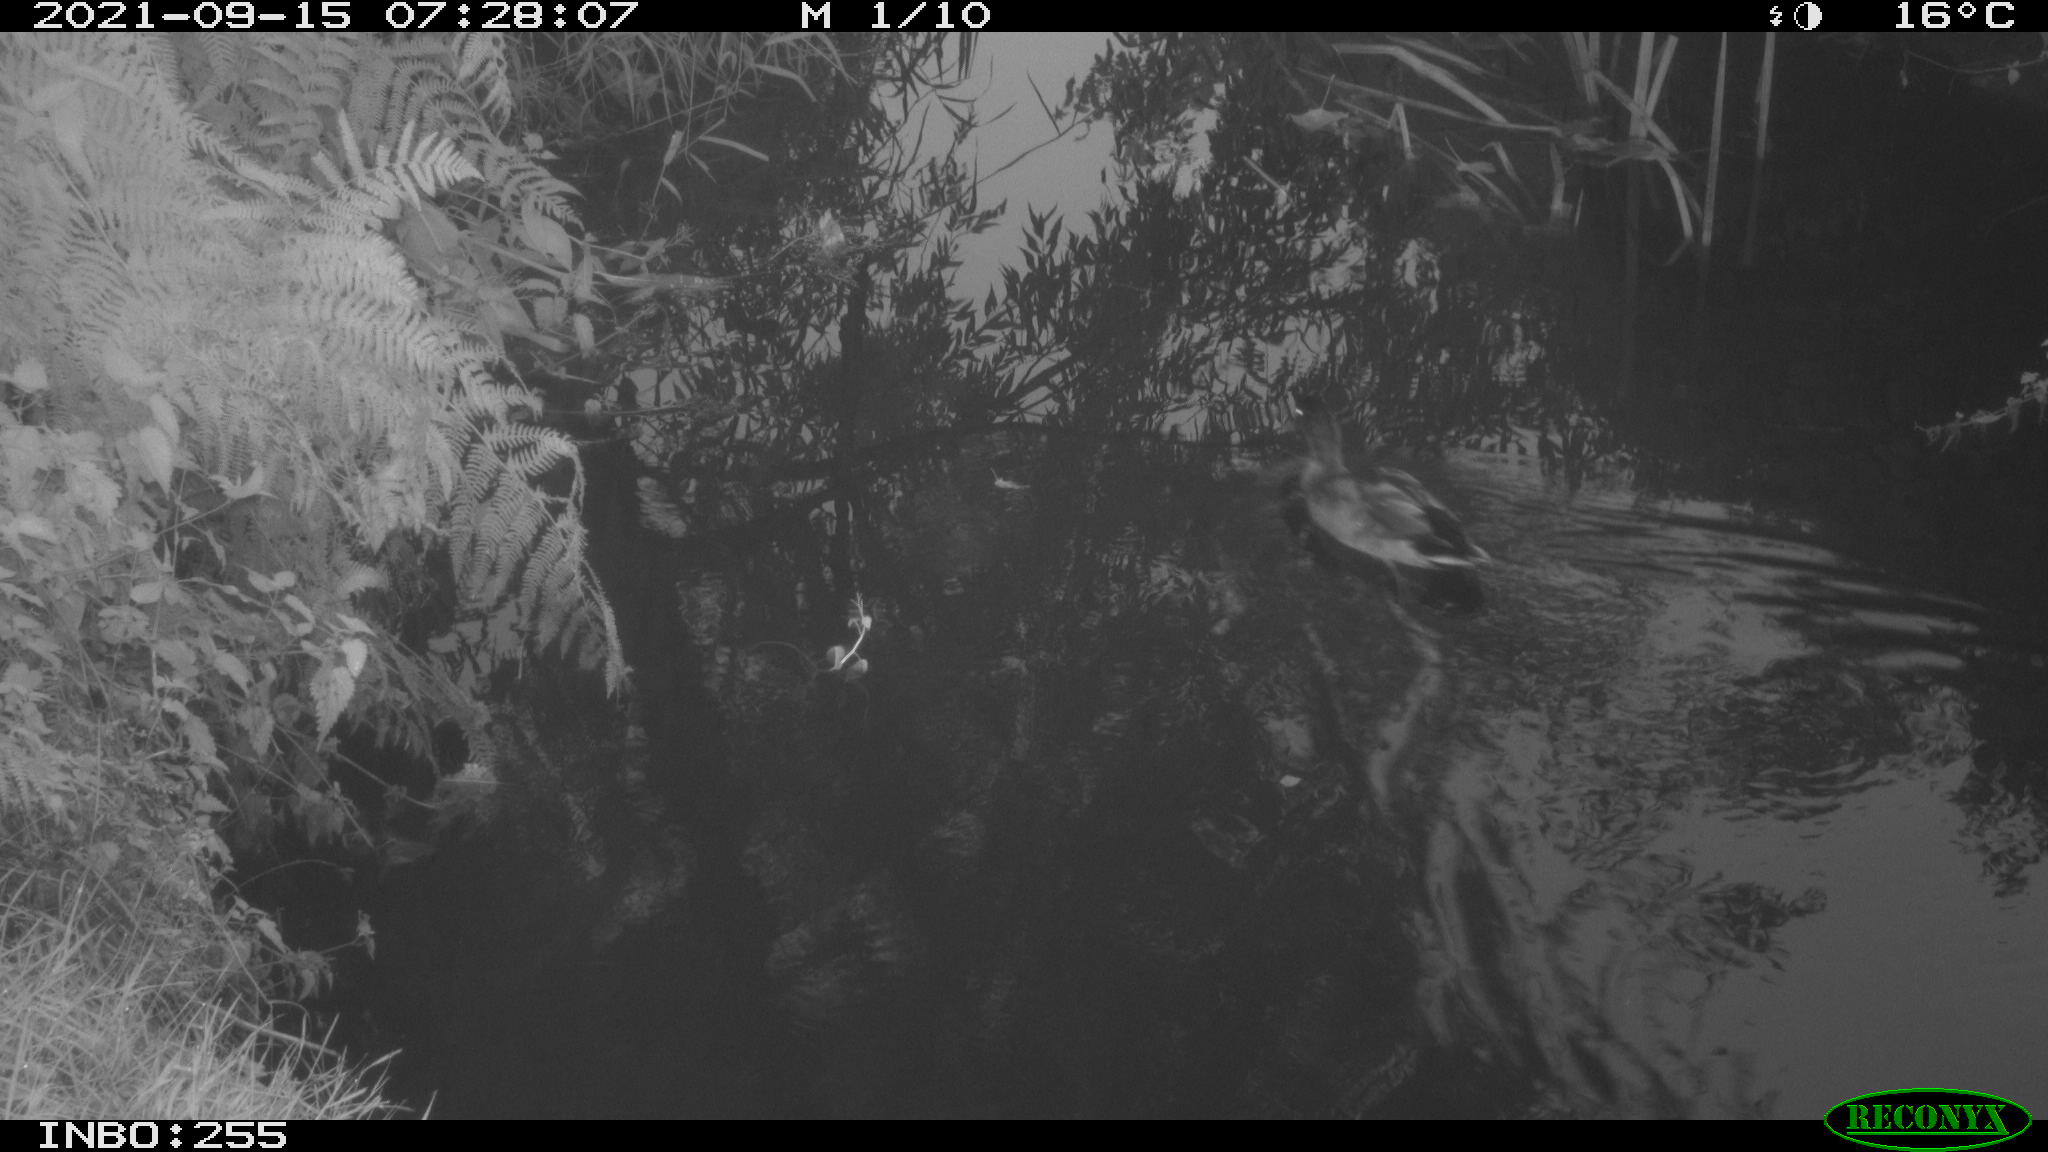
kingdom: Animalia
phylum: Chordata
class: Aves
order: Anseriformes
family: Anatidae
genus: Anas
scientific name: Anas platyrhynchos
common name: Mallard
